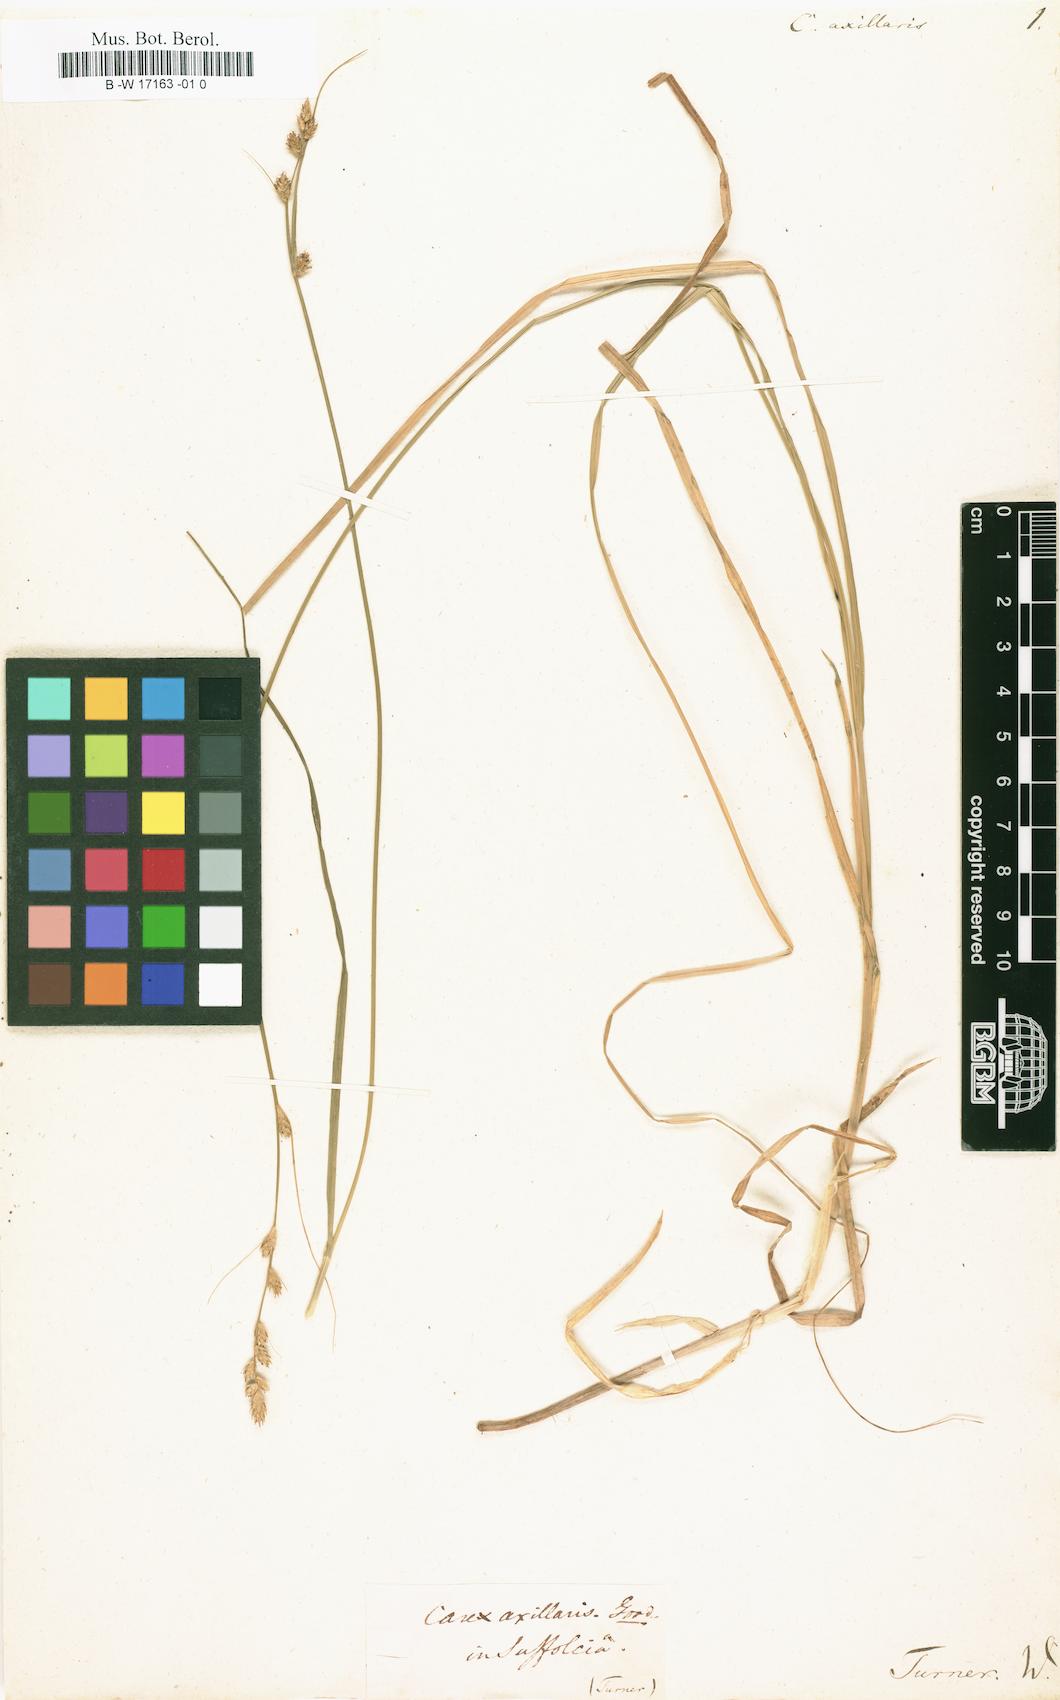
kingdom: Plantae
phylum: Tracheophyta
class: Liliopsida
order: Poales
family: Cyperaceae
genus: Carex
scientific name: Carex axillaris
